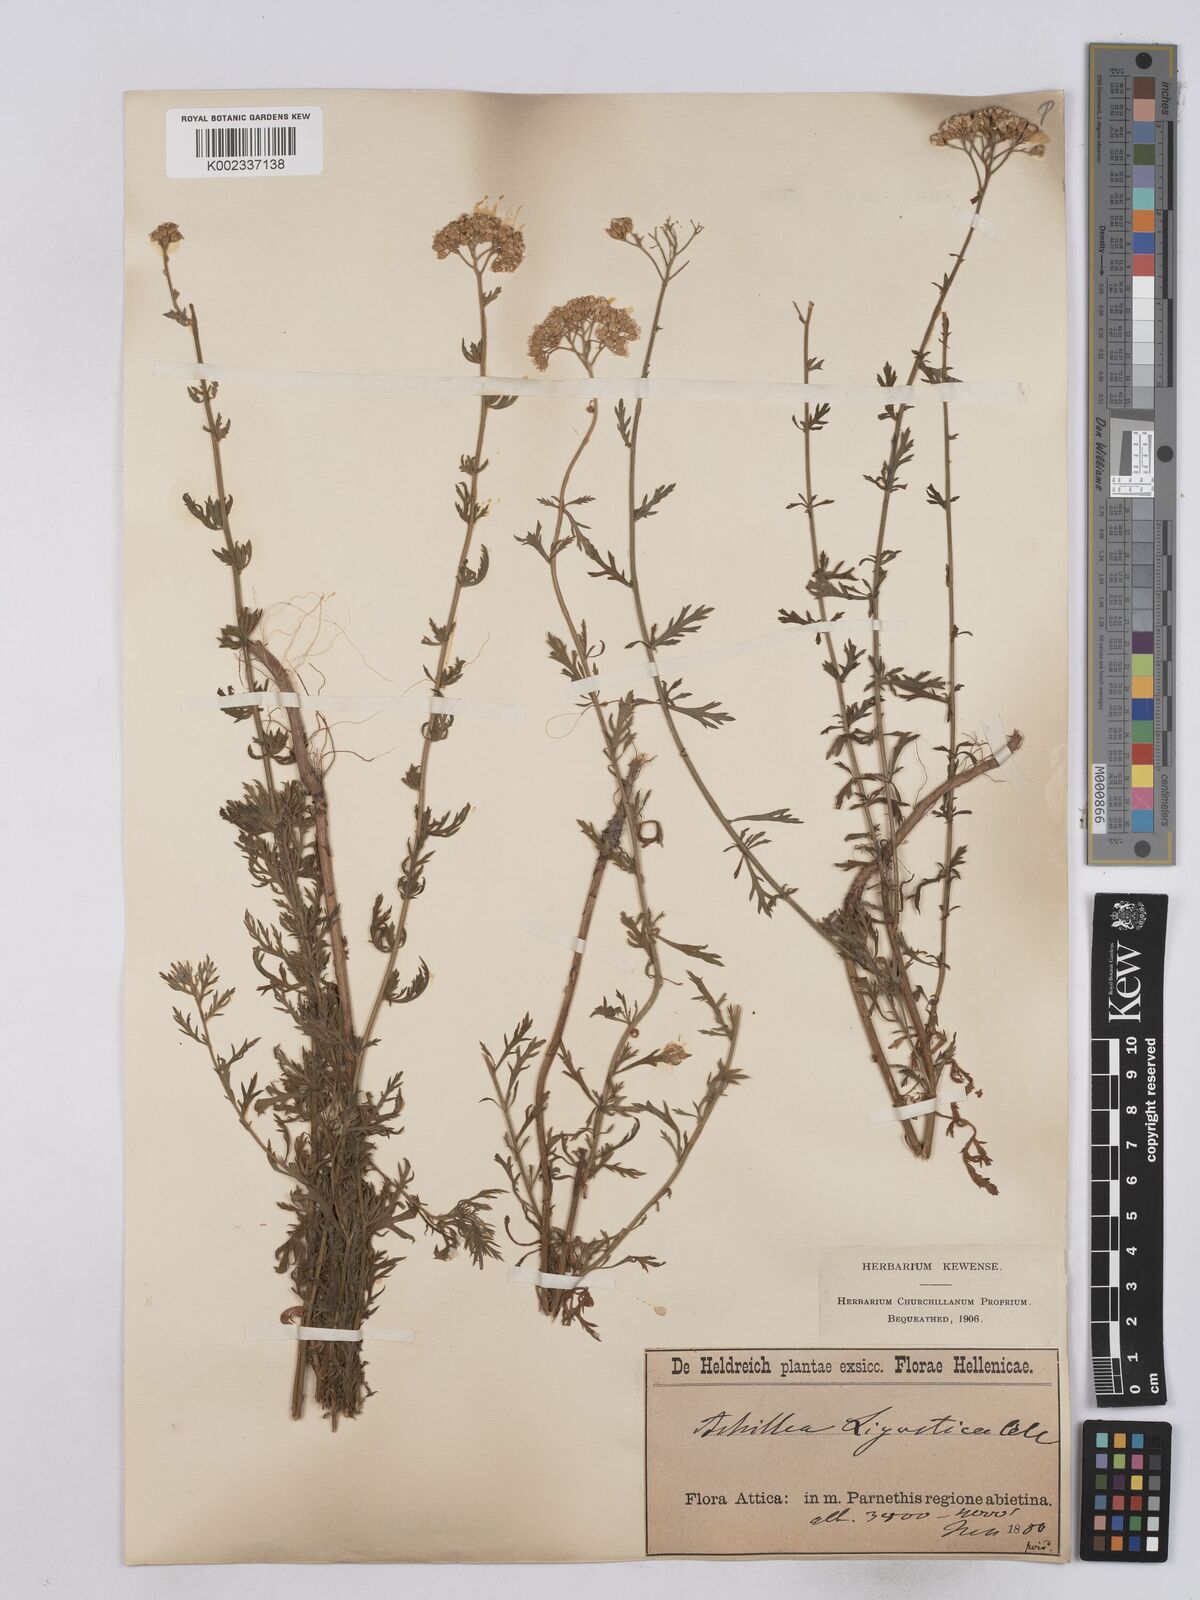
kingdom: Plantae
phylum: Tracheophyta
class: Magnoliopsida
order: Asterales
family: Asteraceae
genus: Achillea
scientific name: Achillea ligustica
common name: Southern yarrow
